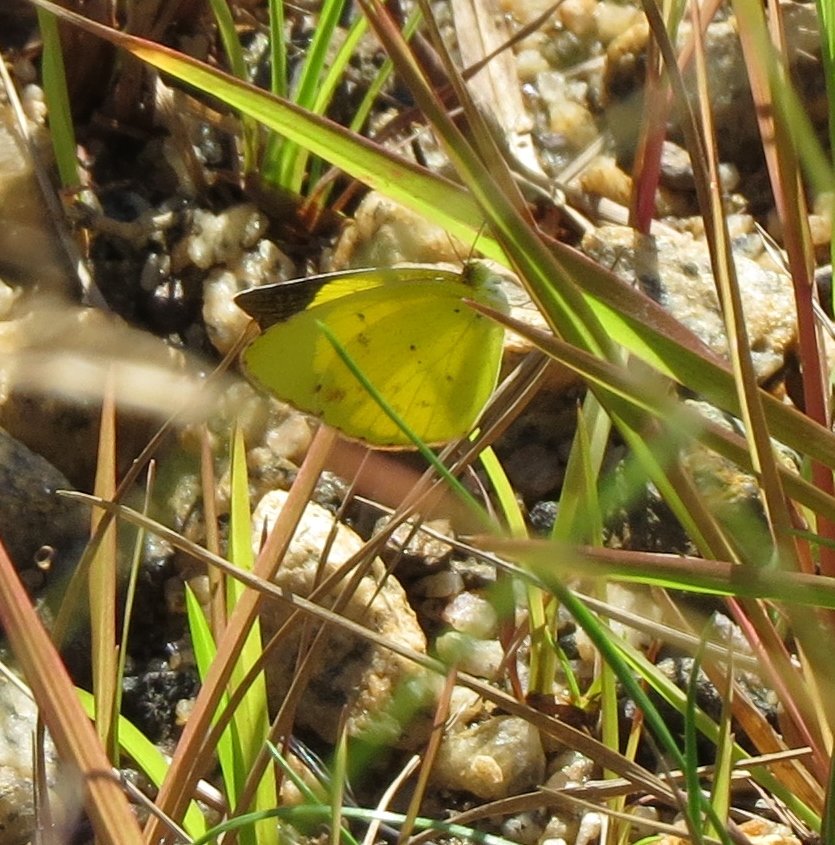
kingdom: Animalia
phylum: Arthropoda
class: Insecta
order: Lepidoptera
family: Pieridae
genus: Pyrisitia
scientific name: Pyrisitia lisa
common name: Little Yellow
